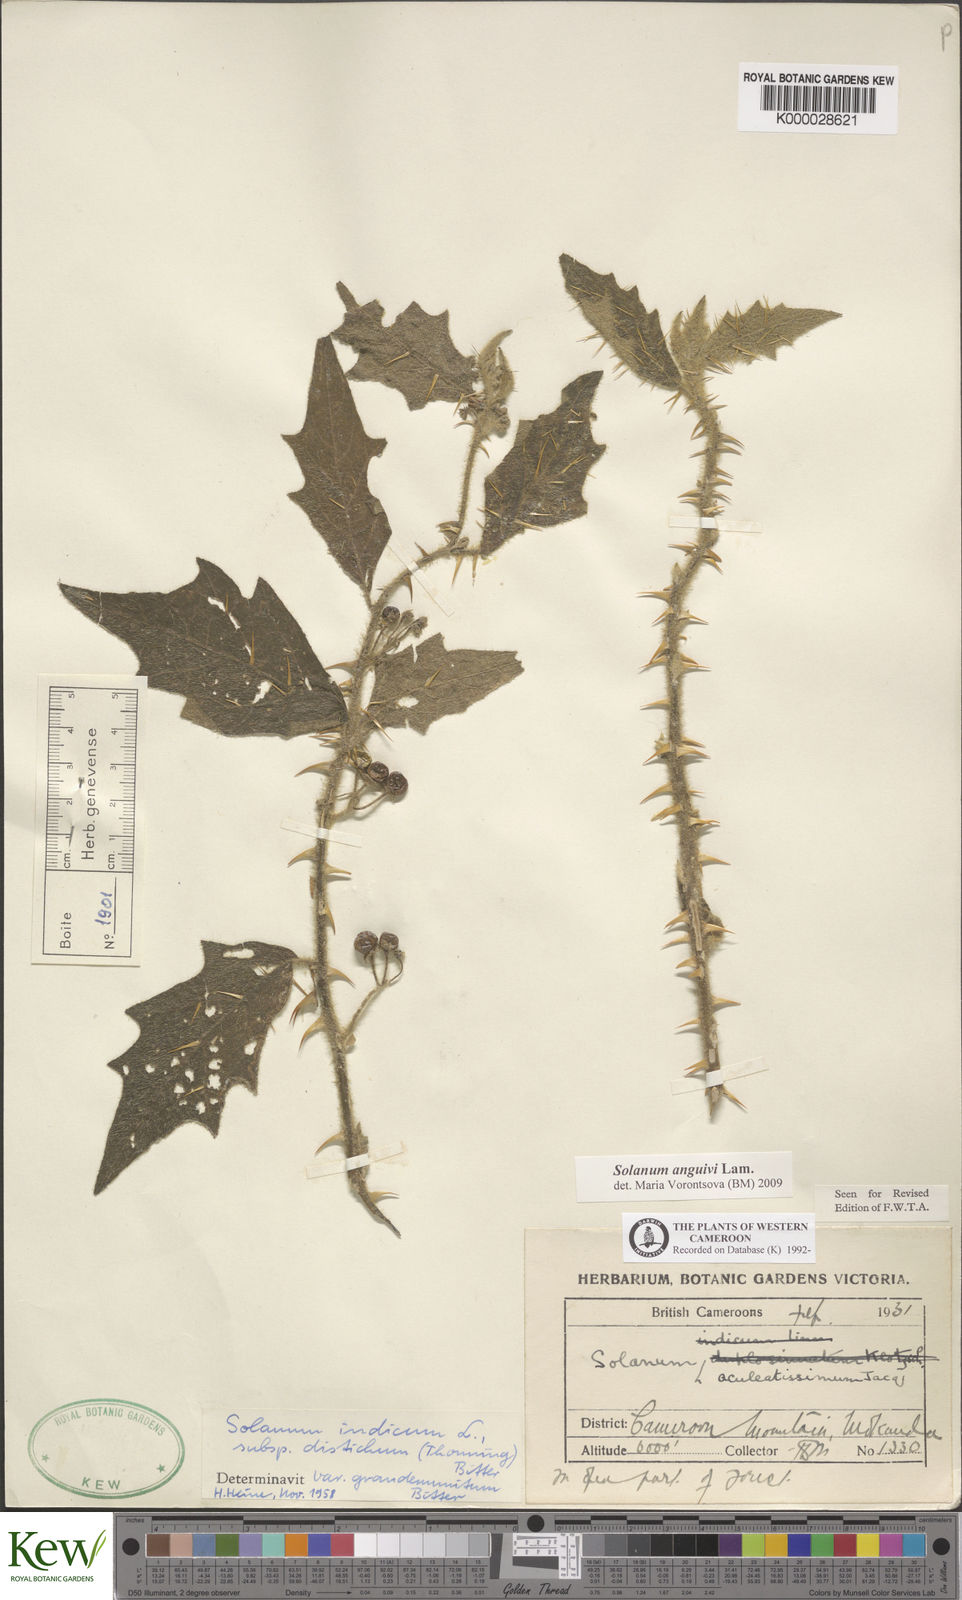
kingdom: Plantae
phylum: Tracheophyta
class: Magnoliopsida
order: Solanales
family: Solanaceae
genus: Solanum
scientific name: Solanum violaceum
